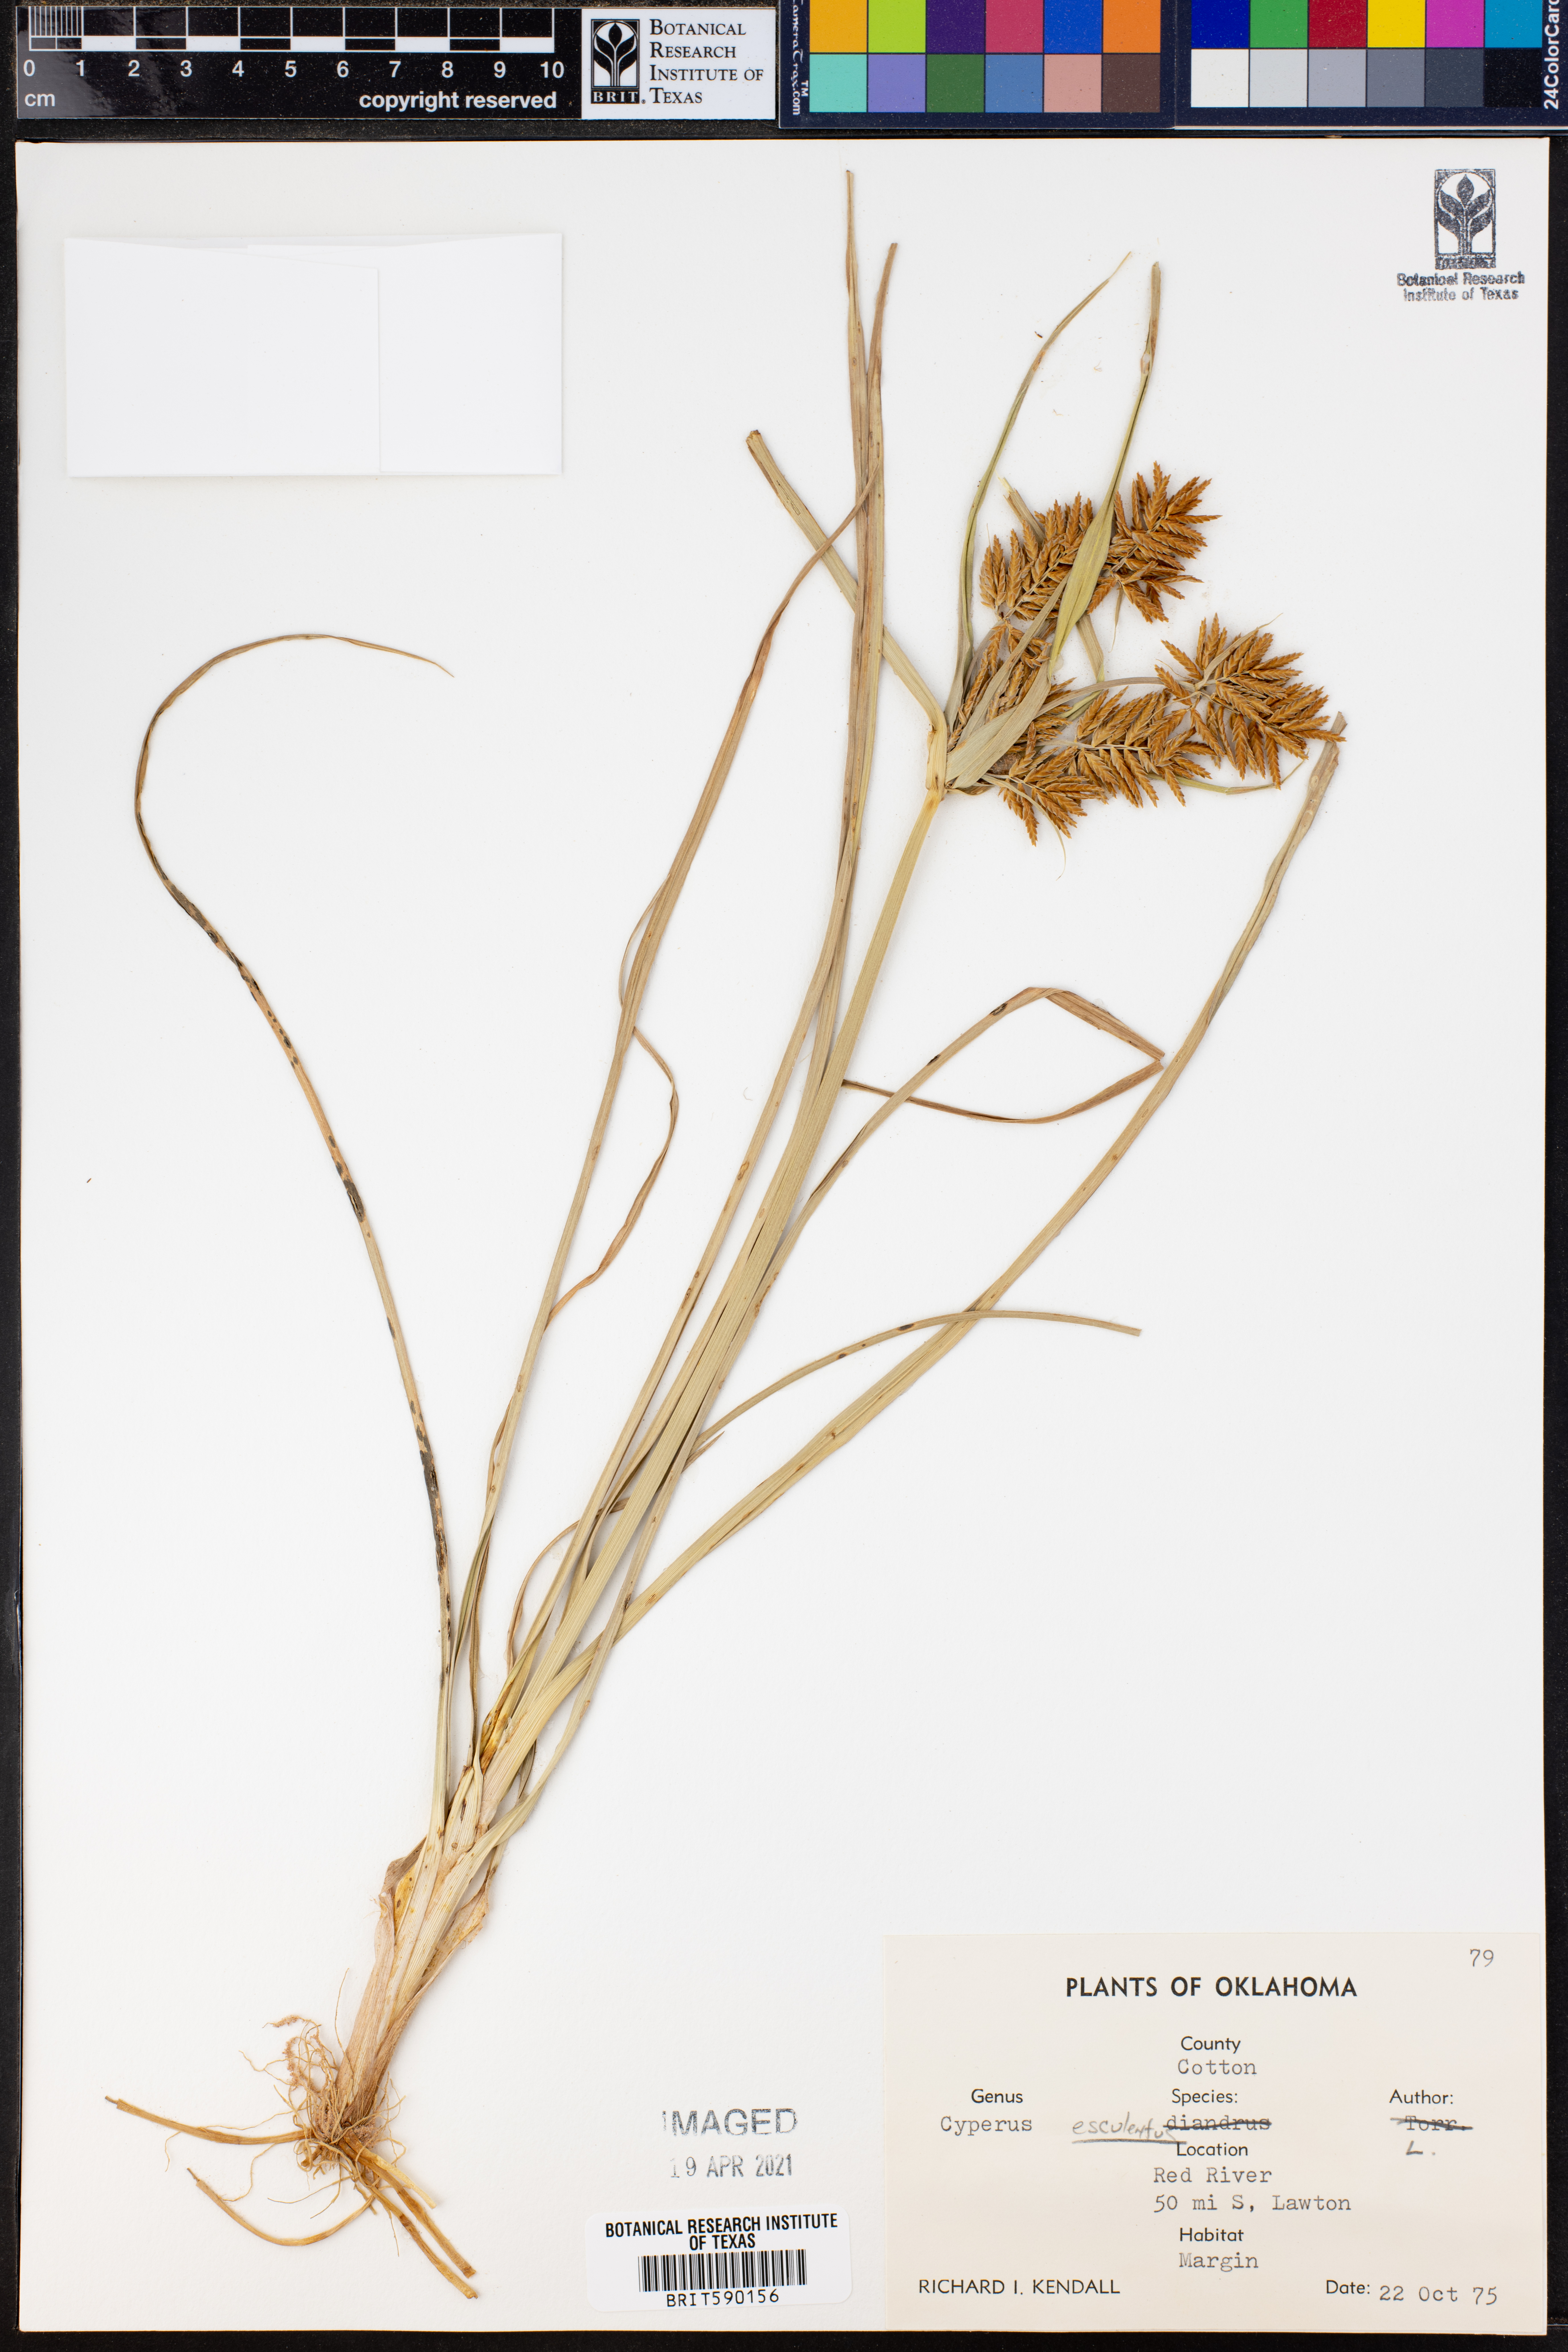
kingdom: Plantae
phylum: Tracheophyta
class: Liliopsida
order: Poales
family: Cyperaceae
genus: Cyperus
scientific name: Cyperus esculentus
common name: Yellow nutsedge
